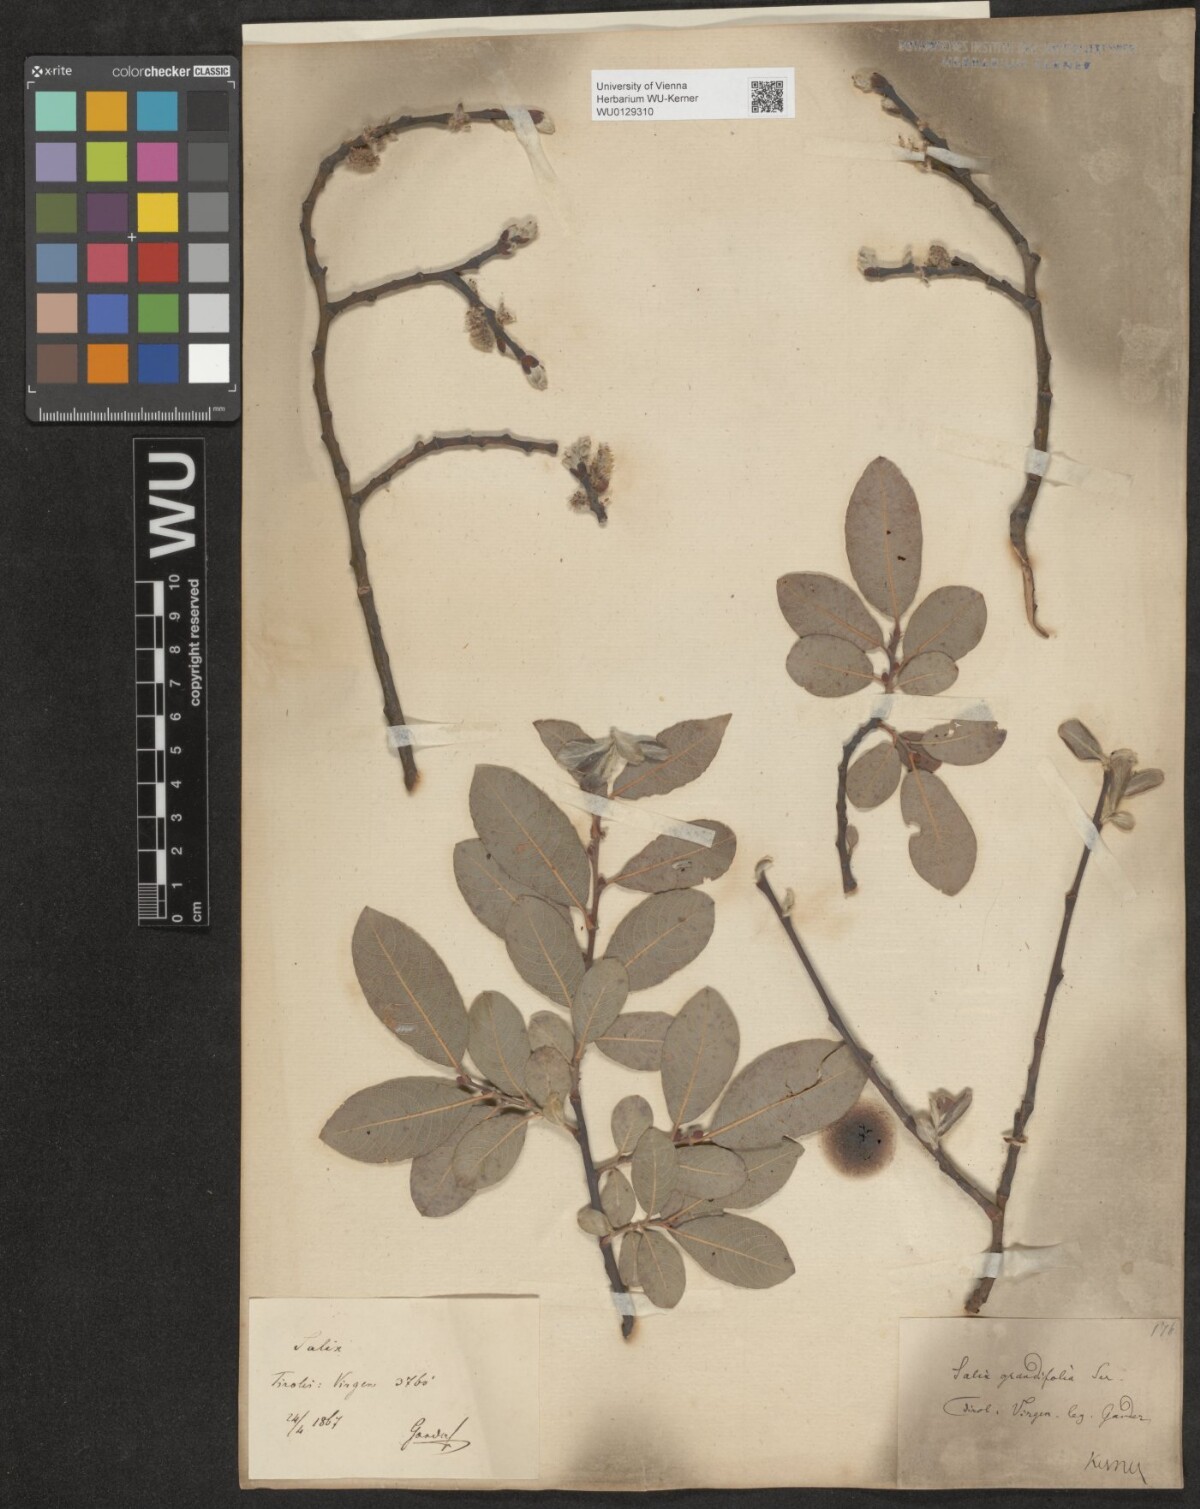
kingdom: Plantae
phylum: Tracheophyta
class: Magnoliopsida
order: Malpighiales
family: Salicaceae
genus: Salix
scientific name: Salix appendiculata
